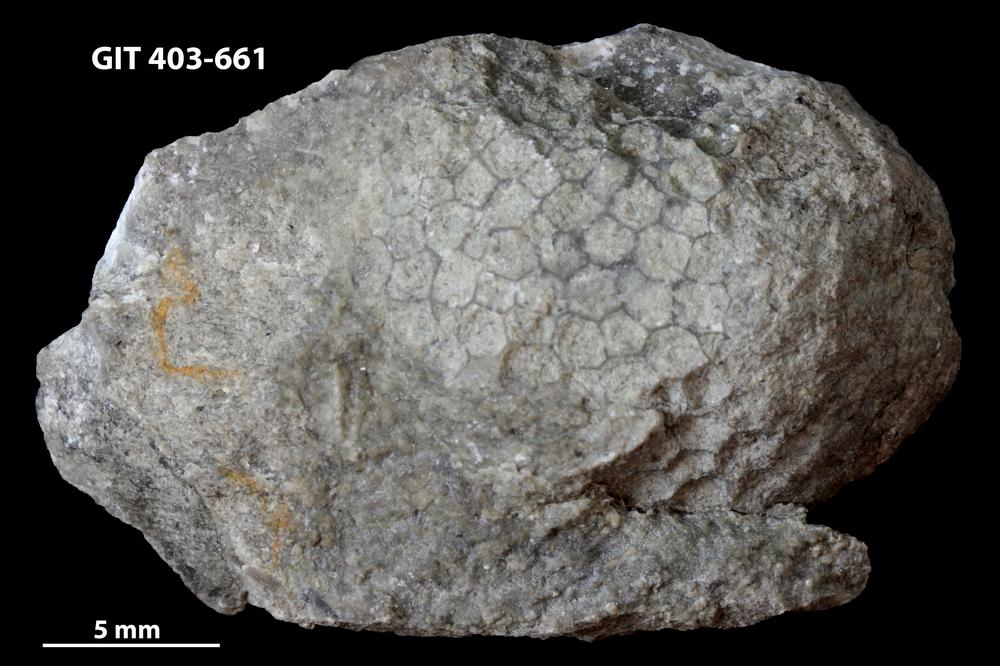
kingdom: Animalia
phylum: Cnidaria
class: Anthozoa
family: Favositidae
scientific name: Favositidae
